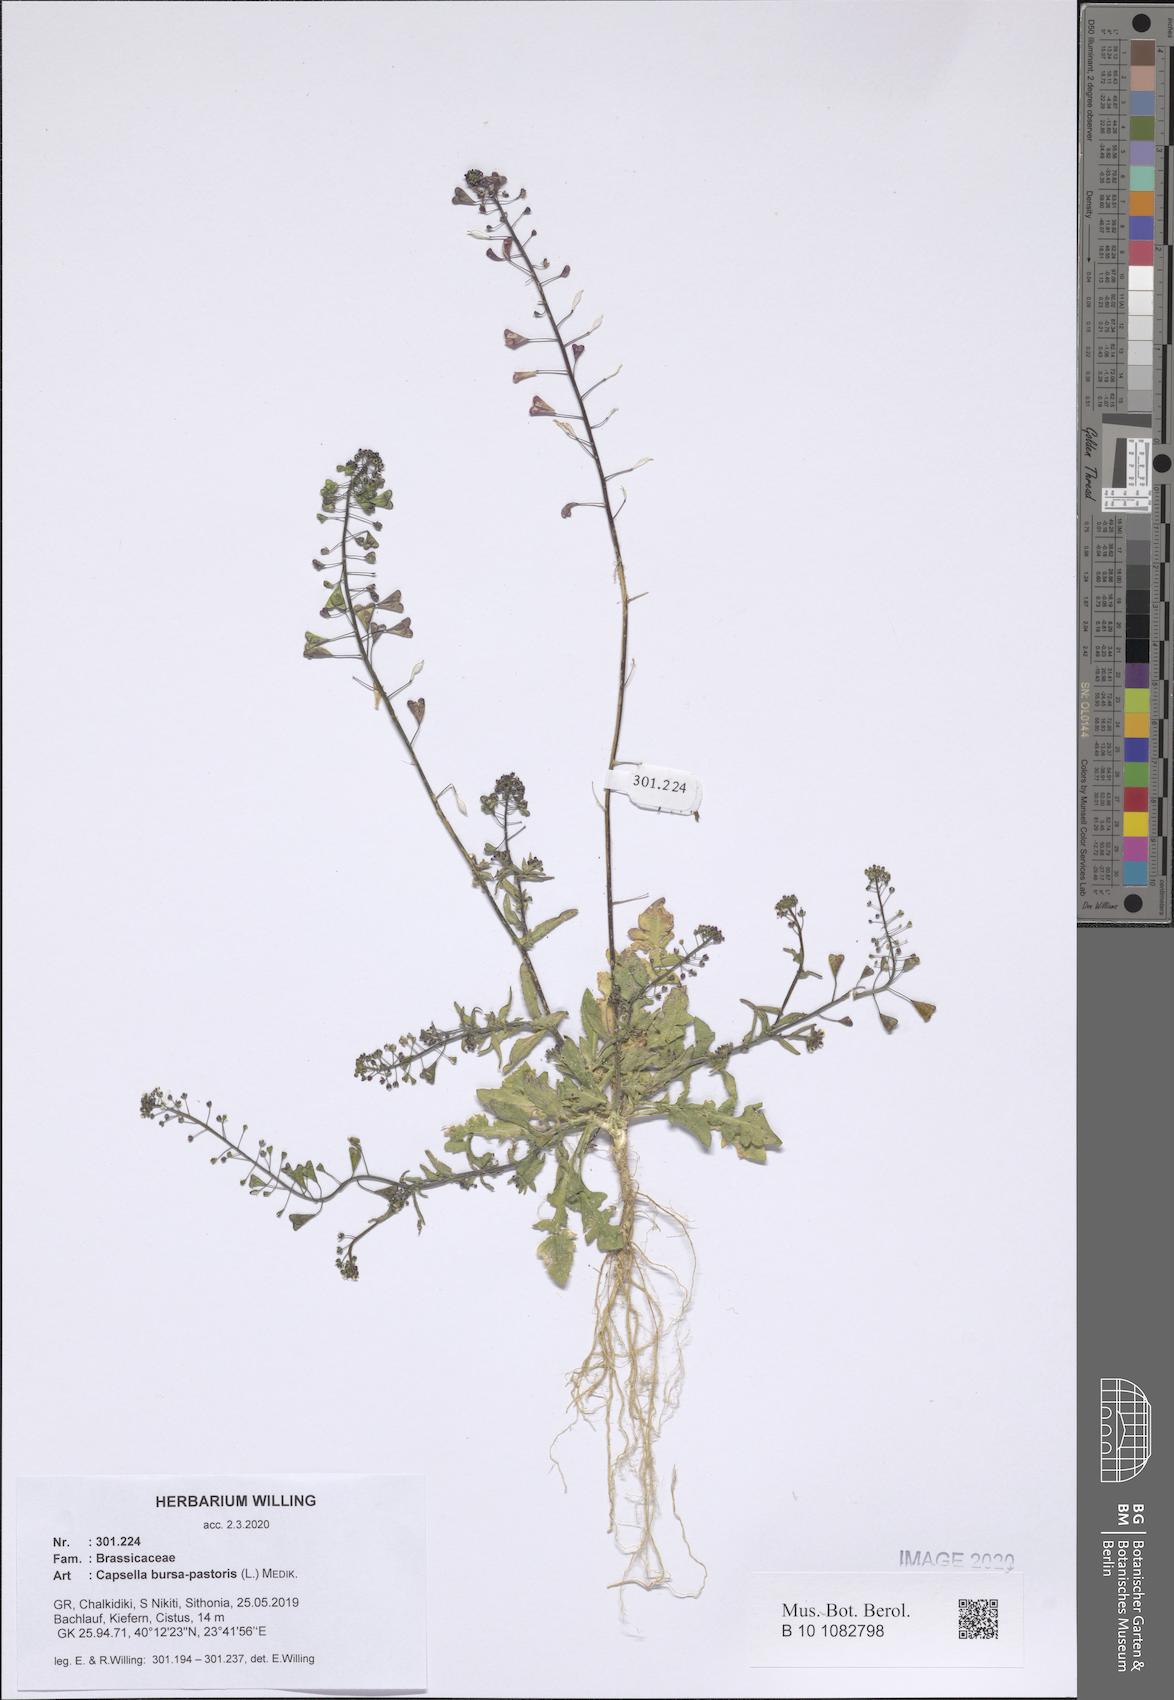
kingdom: Plantae
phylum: Tracheophyta
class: Magnoliopsida
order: Brassicales
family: Brassicaceae
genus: Capsella
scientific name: Capsella bursa-pastoris
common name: Shepherd's purse
